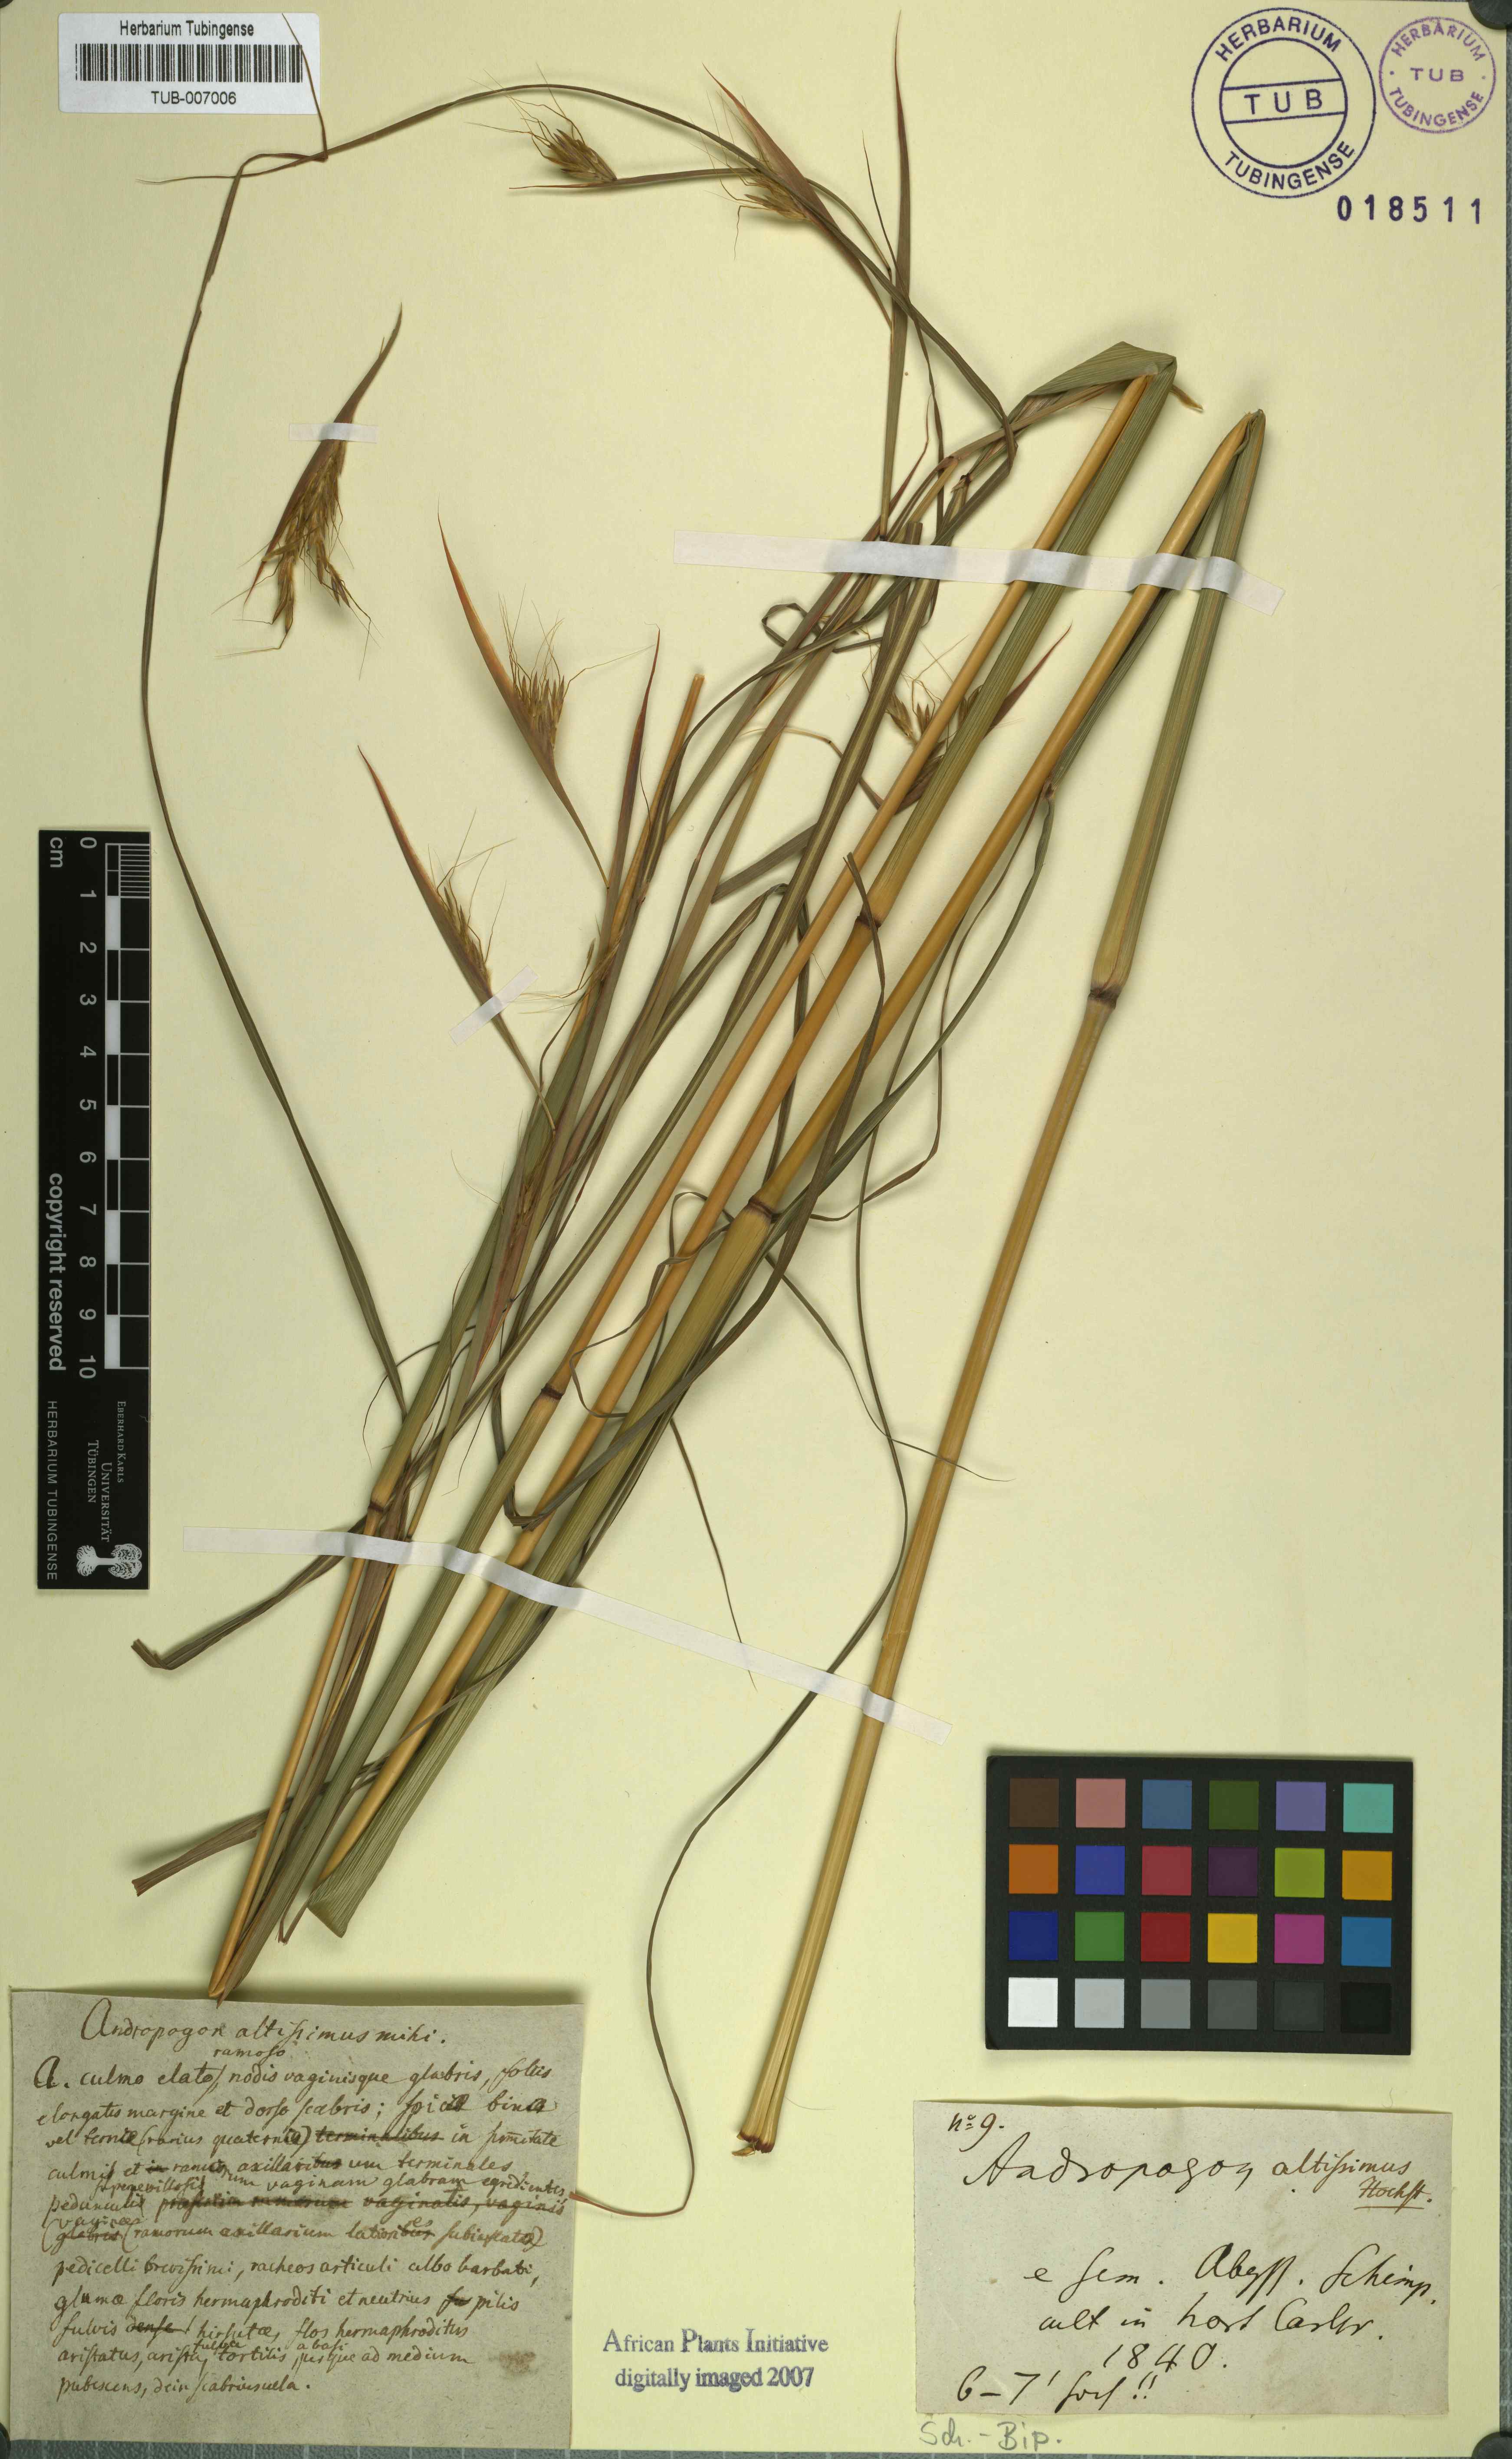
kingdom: Plantae
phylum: Tracheophyta
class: Liliopsida
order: Poales
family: Poaceae
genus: Hyparrhenia
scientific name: Hyparrhenia rufa
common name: Jaraguagrass
